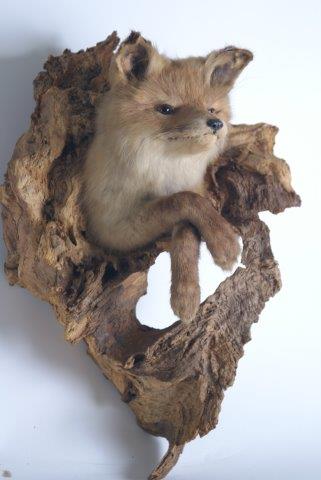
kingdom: Animalia
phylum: Chordata
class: Mammalia
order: Carnivora
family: Canidae
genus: Vulpes
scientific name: Vulpes vulpes
